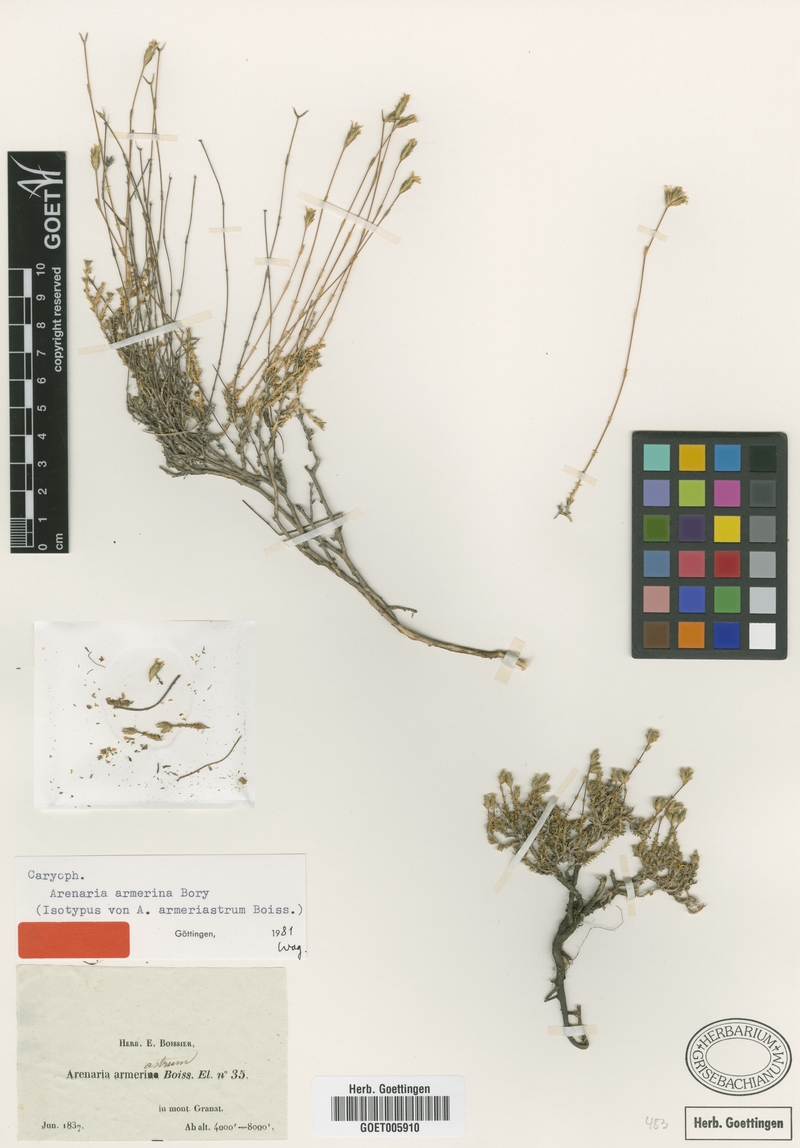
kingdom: Plantae
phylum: Tracheophyta
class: Magnoliopsida
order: Caryophyllales
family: Caryophyllaceae
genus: Arenaria
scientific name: Arenaria armerina
